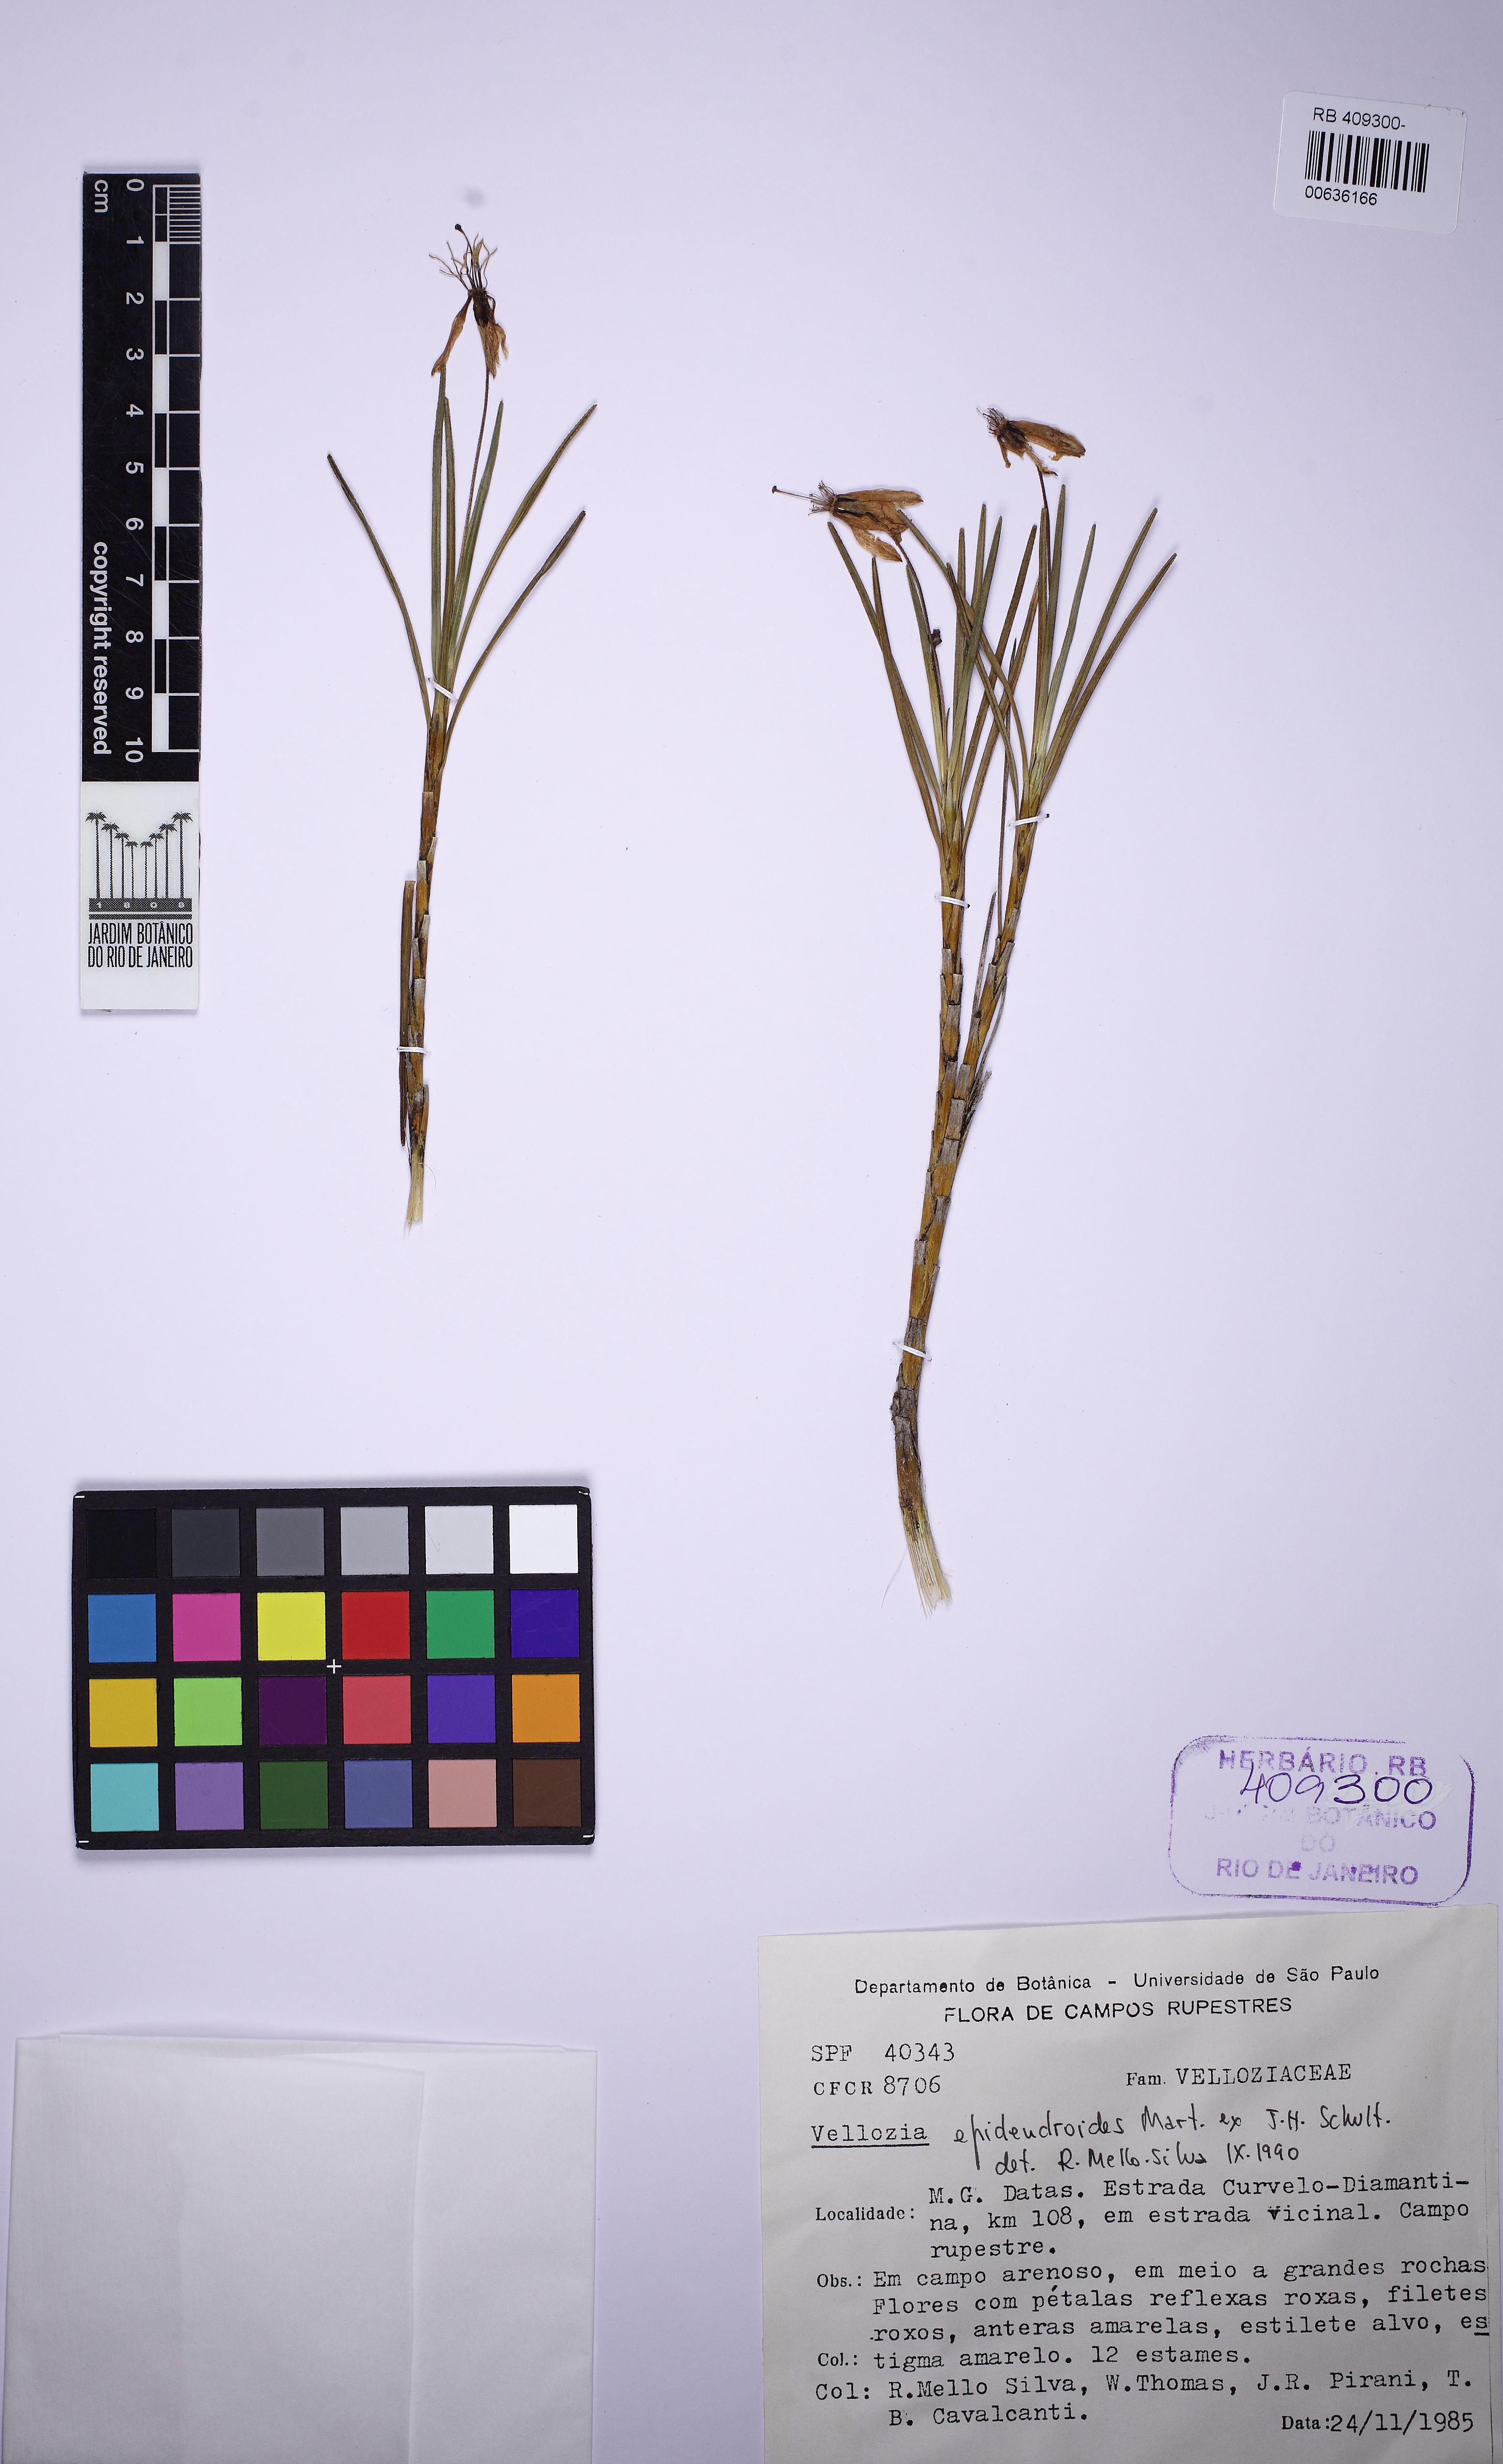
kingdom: Plantae
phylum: Tracheophyta
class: Liliopsida
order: Pandanales
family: Velloziaceae
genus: Vellozia
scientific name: Vellozia epidendroides
